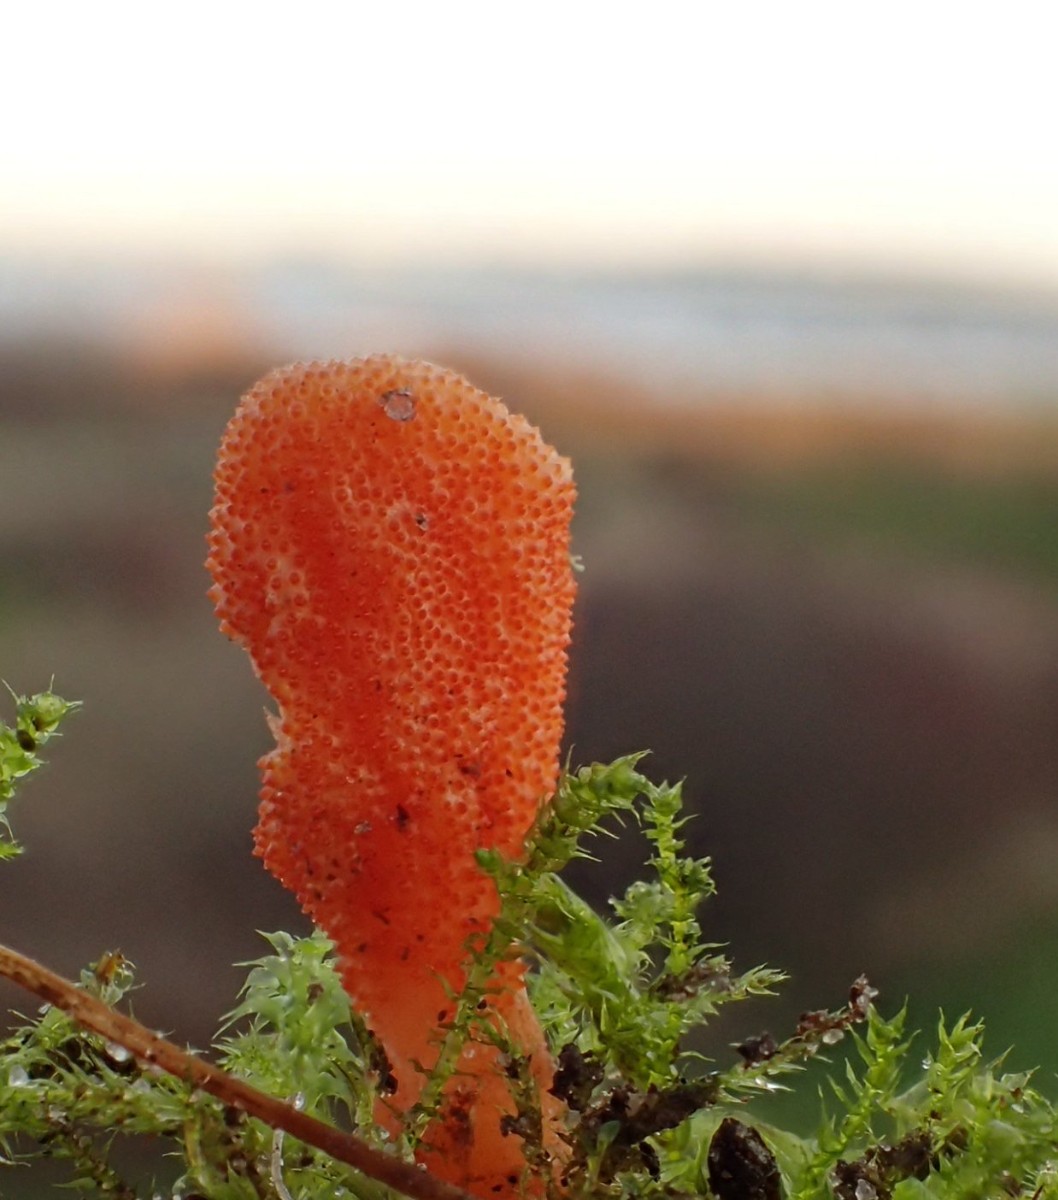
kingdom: Fungi
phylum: Ascomycota
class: Sordariomycetes
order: Hypocreales
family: Cordycipitaceae
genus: Cordyceps
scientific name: Cordyceps militaris
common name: puppe-snyltekølle
